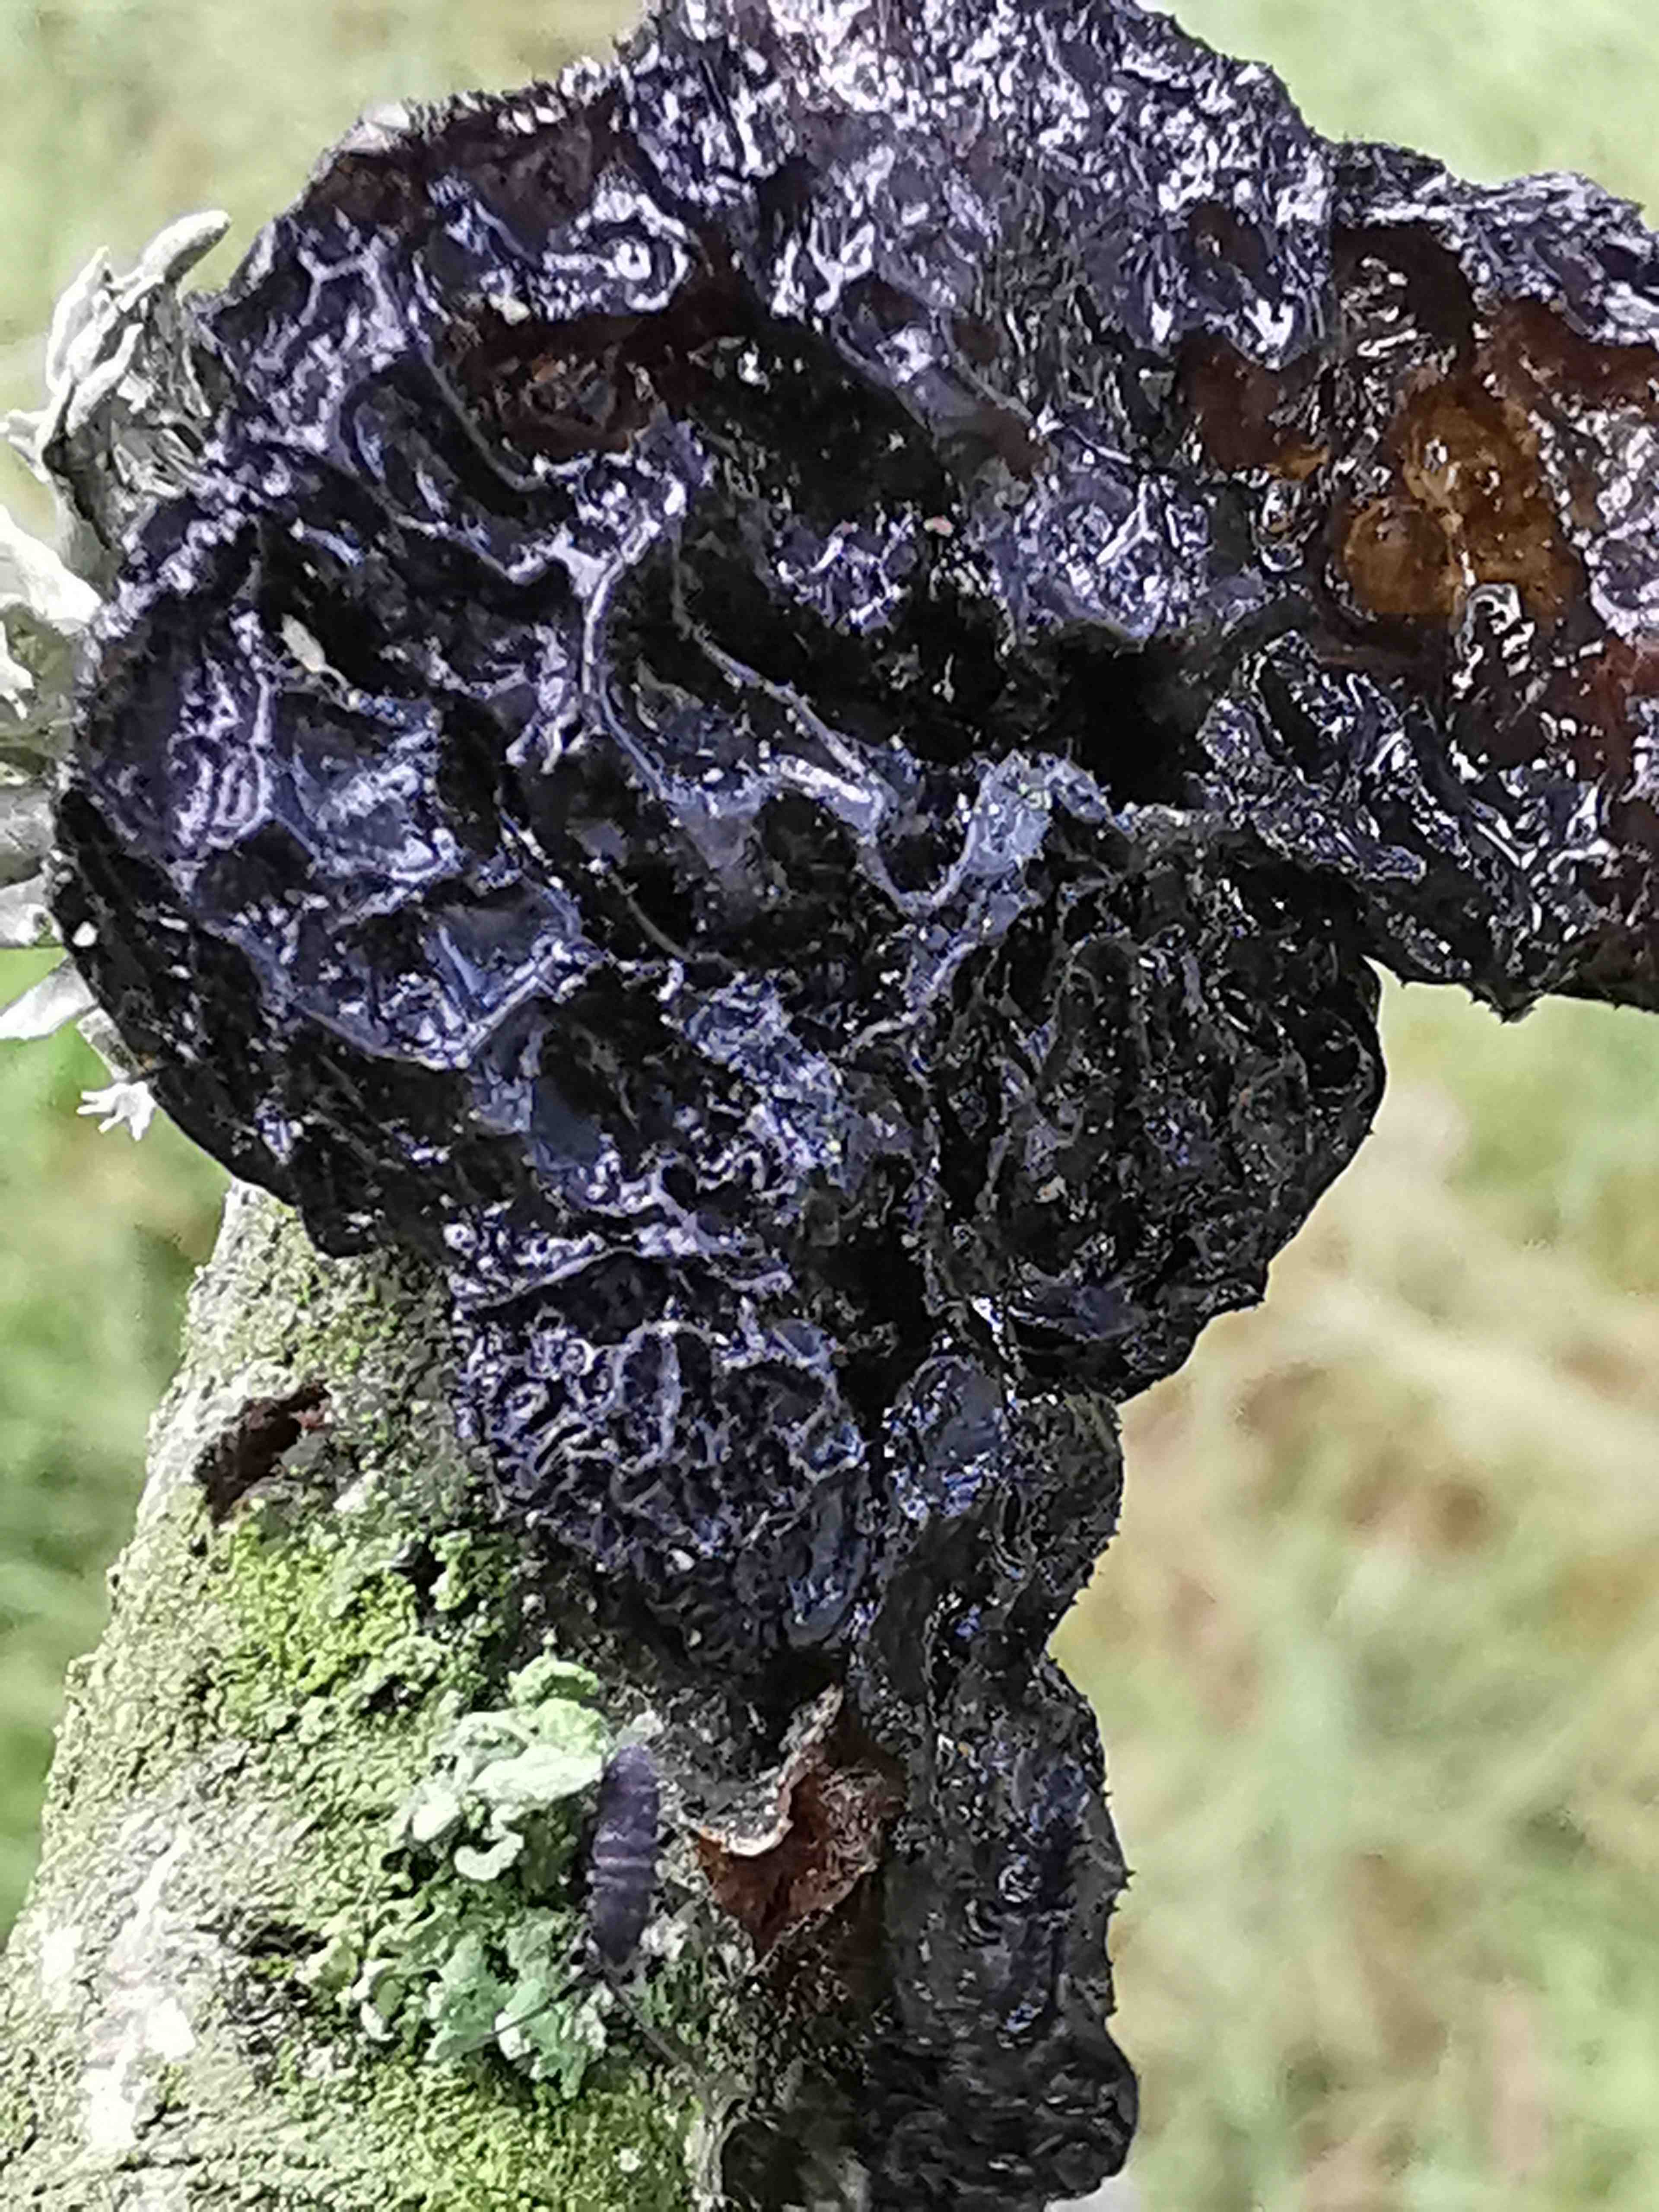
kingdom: Fungi
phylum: Basidiomycota
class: Agaricomycetes
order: Auriculariales
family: Auriculariaceae
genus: Exidia
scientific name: Exidia glandulosa
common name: ege-bævretop
